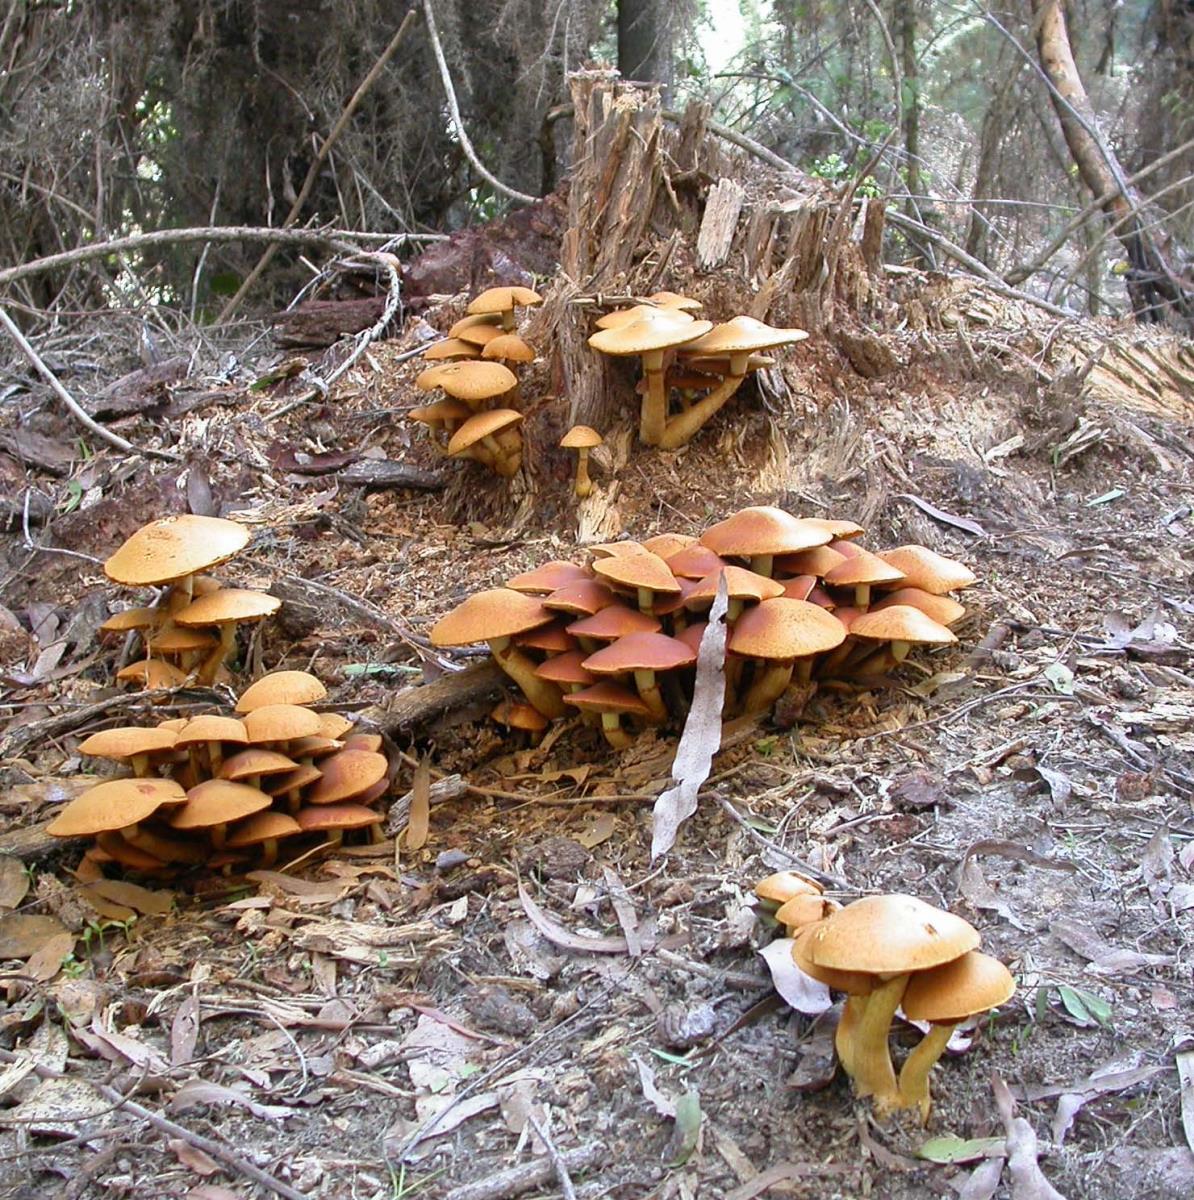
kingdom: Fungi
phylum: Basidiomycota
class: Agaricomycetes
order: Agaricales
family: Hymenogastraceae
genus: Gymnopilus
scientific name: Gymnopilus junonius
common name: Spectacular rustgill
